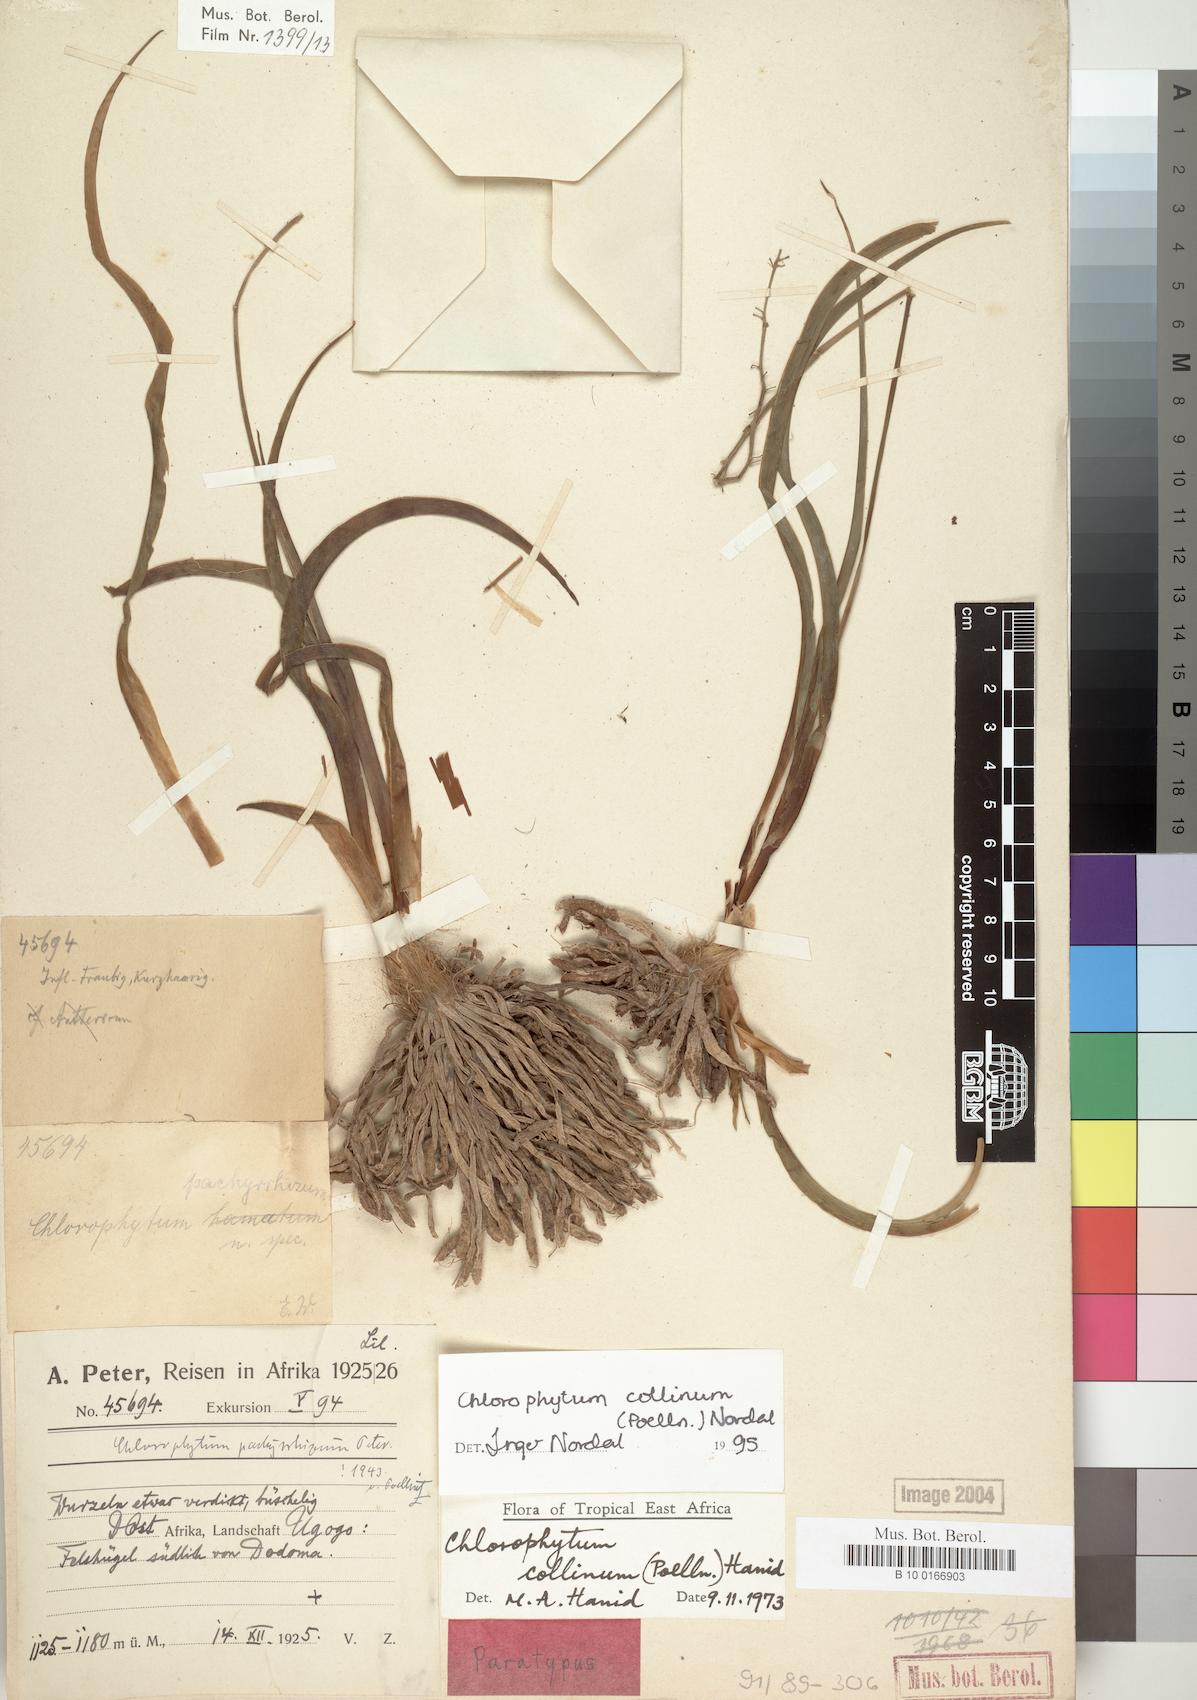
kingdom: Plantae
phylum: Tracheophyta
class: Liliopsida
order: Asparagales
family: Asparagaceae
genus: Chlorophytum
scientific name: Chlorophytum collinum
